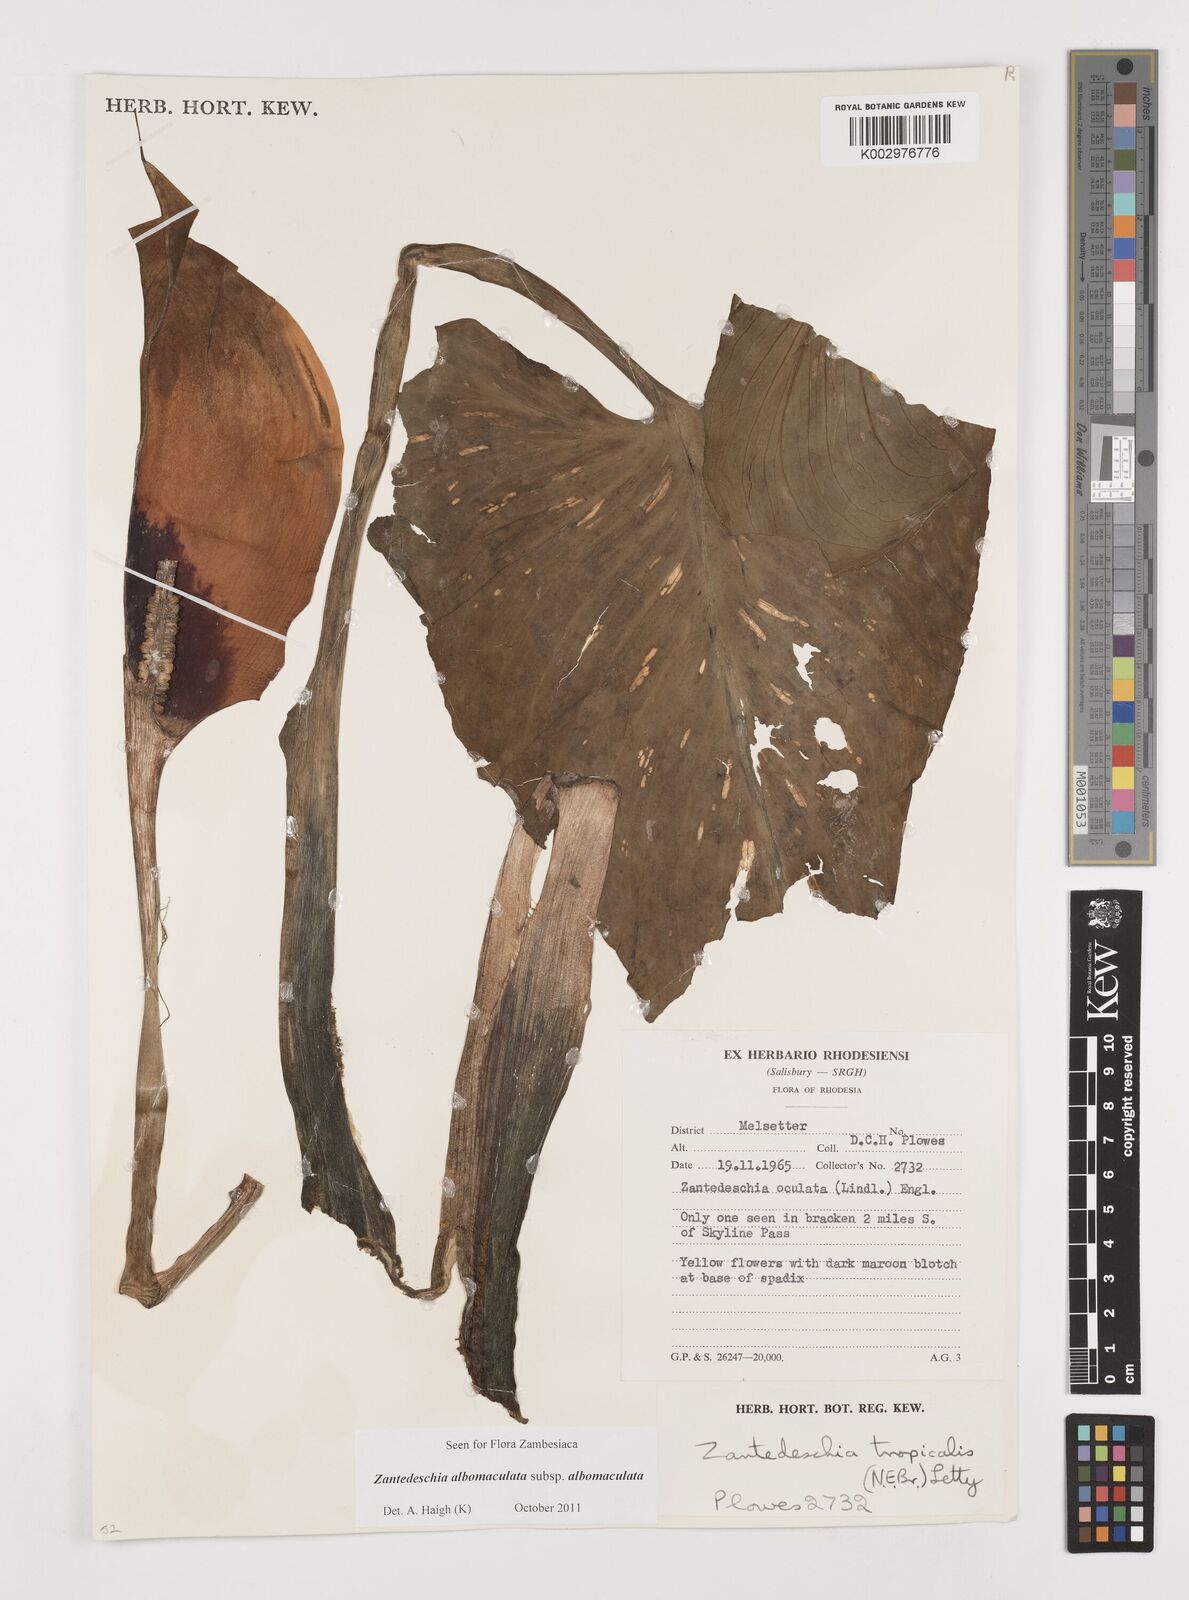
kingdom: Plantae
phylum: Tracheophyta
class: Liliopsida
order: Alismatales
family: Araceae
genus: Zantedeschia
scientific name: Zantedeschia albomaculata
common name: Spotted calla lily
